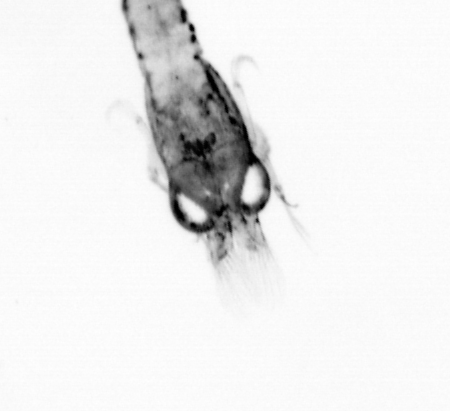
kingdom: Animalia
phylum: Annelida
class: Polychaeta
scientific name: Polychaeta
